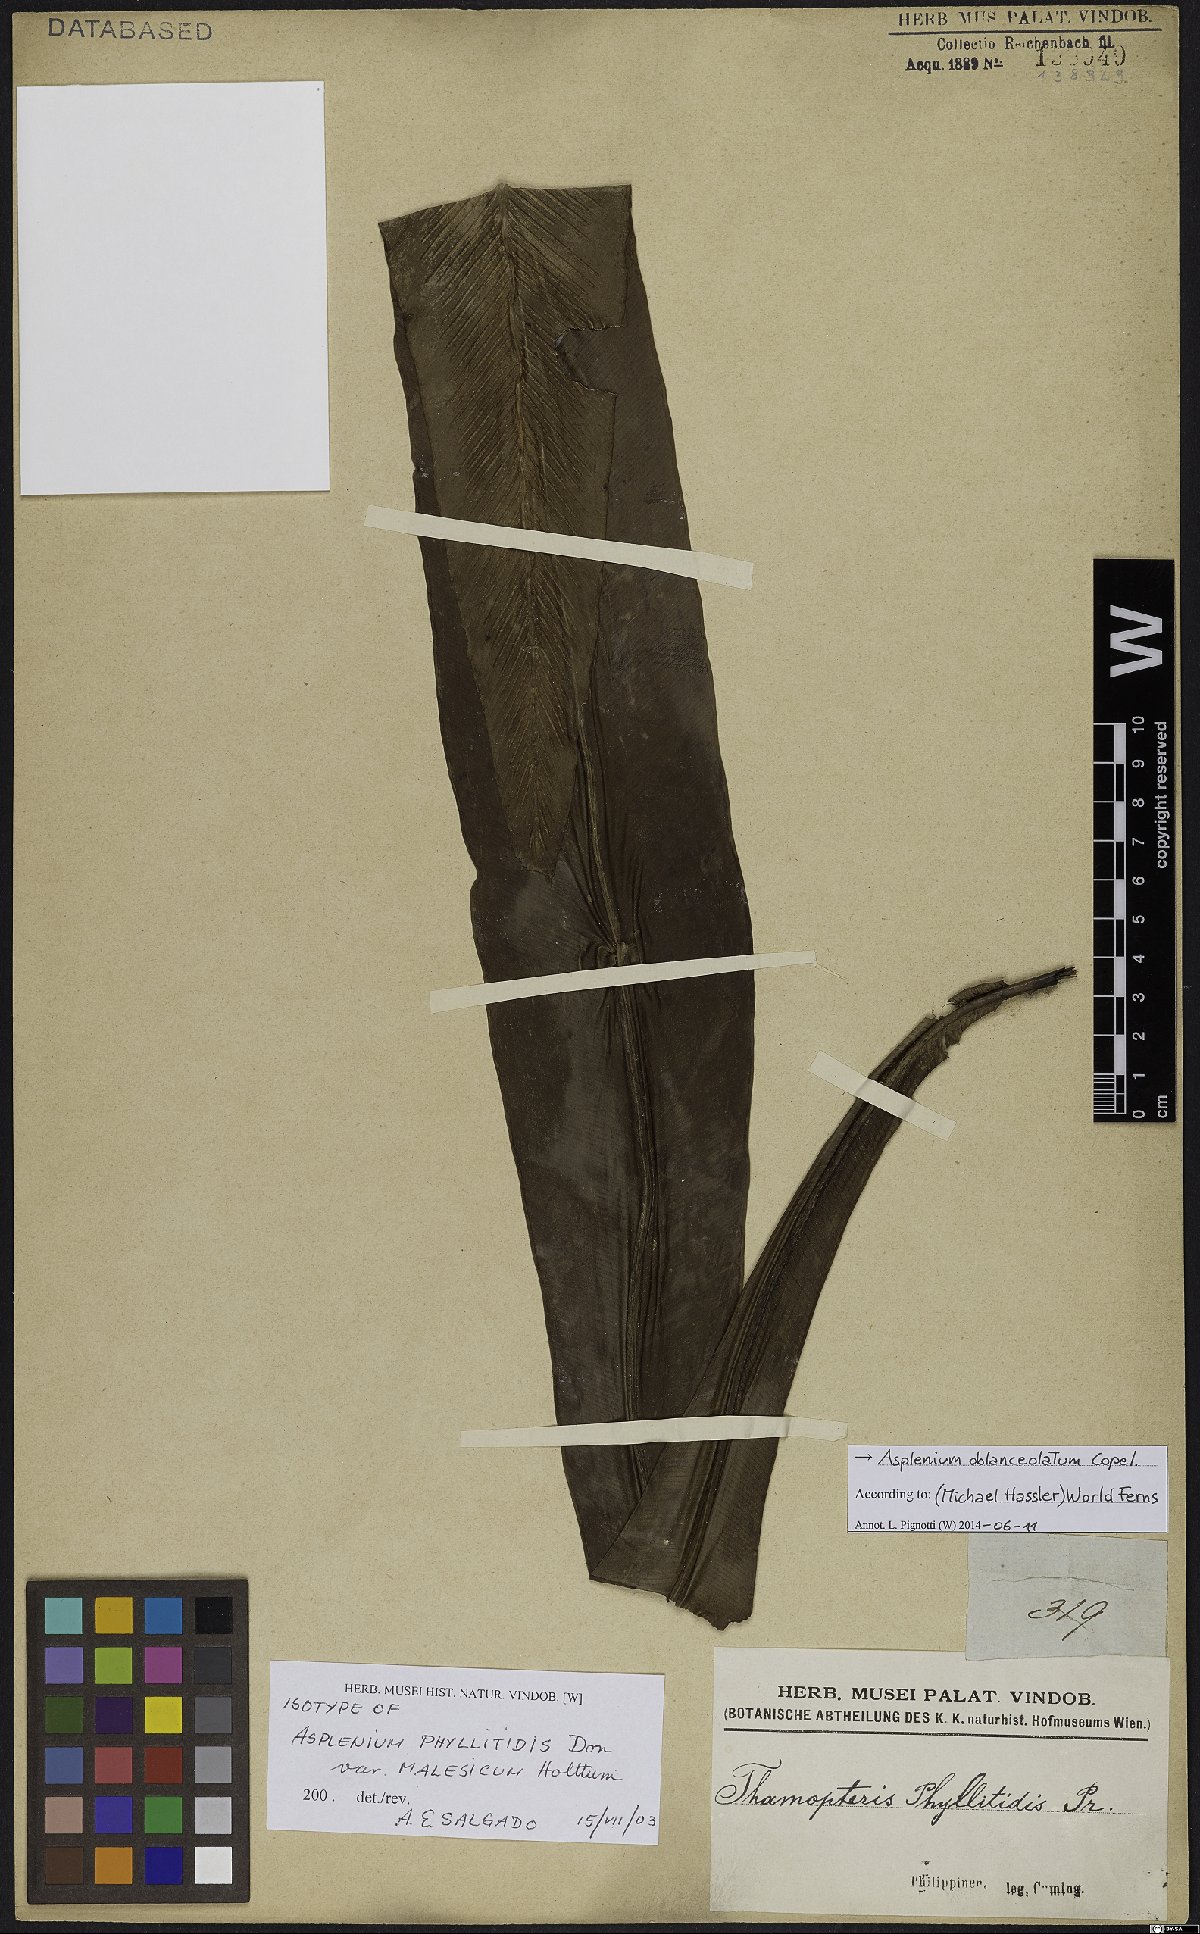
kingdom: Plantae
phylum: Tracheophyta
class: Polypodiopsida
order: Polypodiales
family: Aspleniaceae
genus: Asplenium
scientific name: Asplenium anguineum
